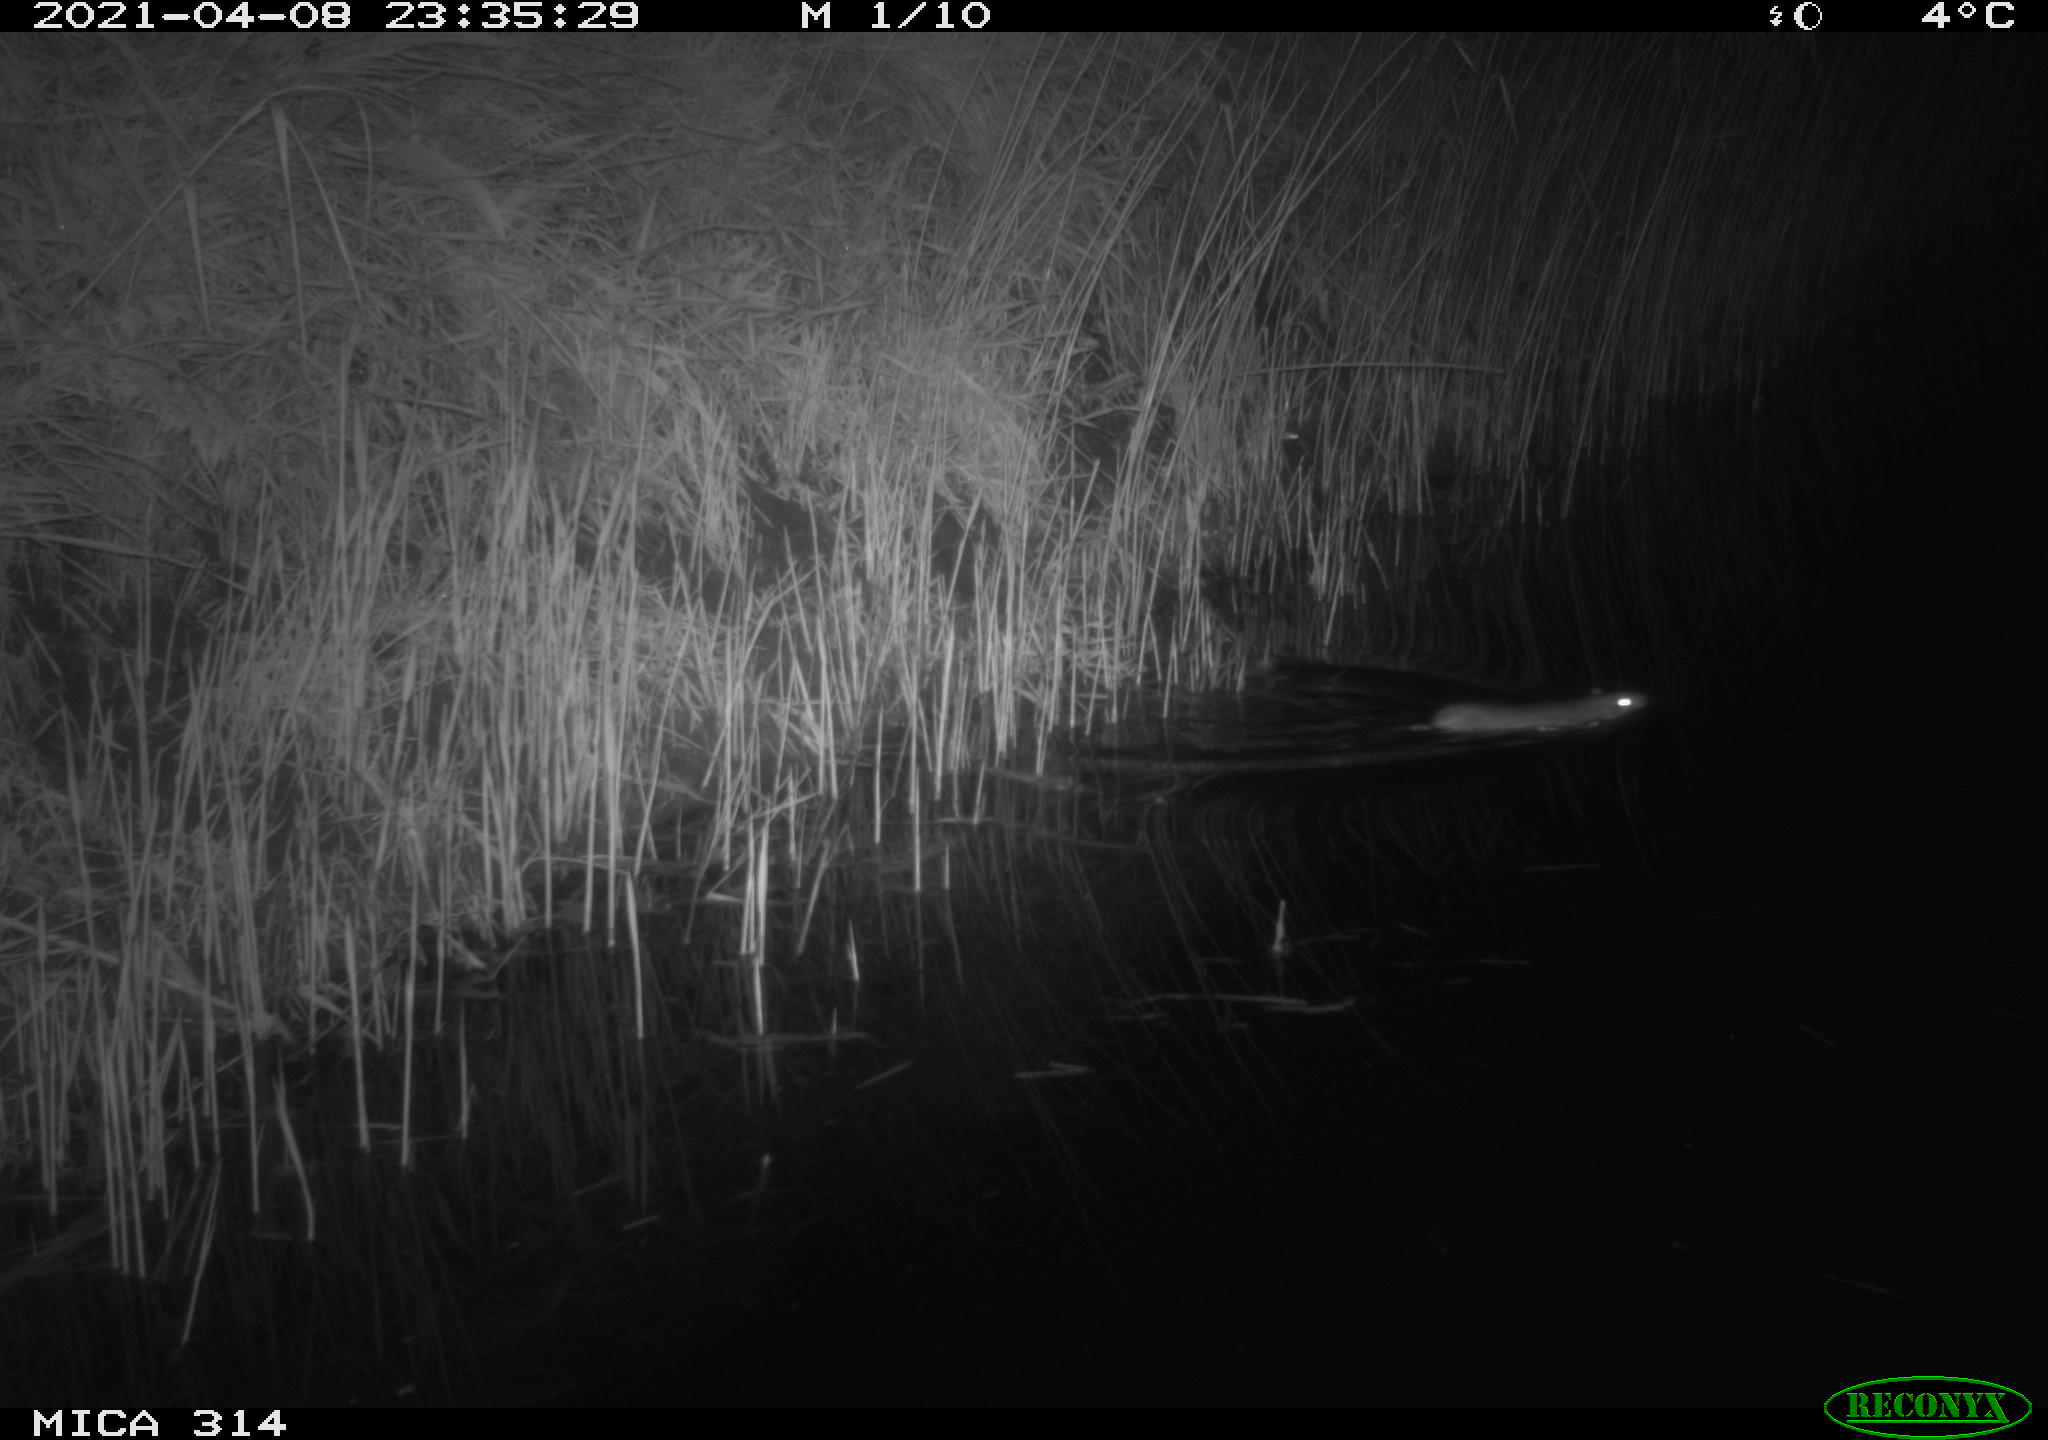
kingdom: Animalia
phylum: Chordata
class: Mammalia
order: Rodentia
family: Muridae
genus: Rattus
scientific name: Rattus norvegicus
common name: Brown rat
